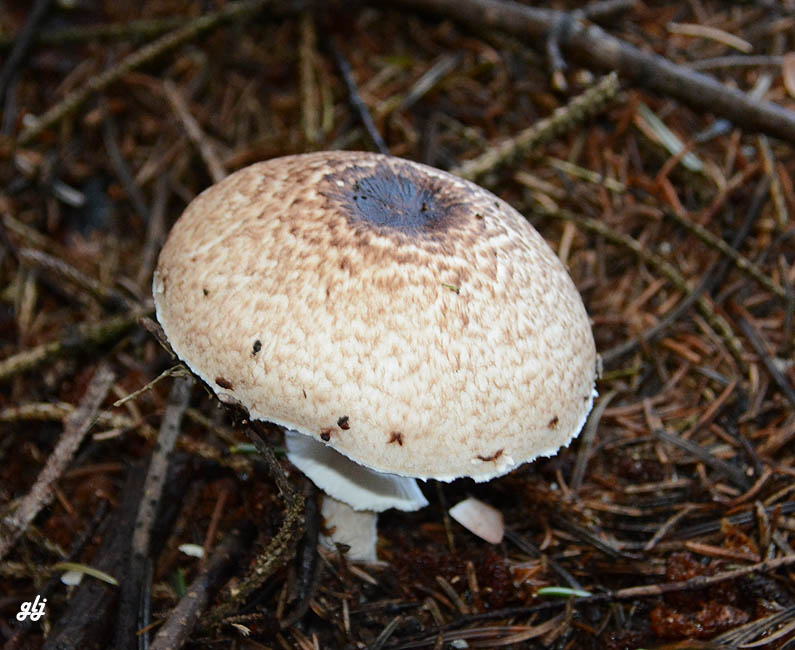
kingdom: Fungi
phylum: Basidiomycota
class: Agaricomycetes
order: Agaricales
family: Agaricaceae
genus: Agaricus
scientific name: Agaricus impudicus
